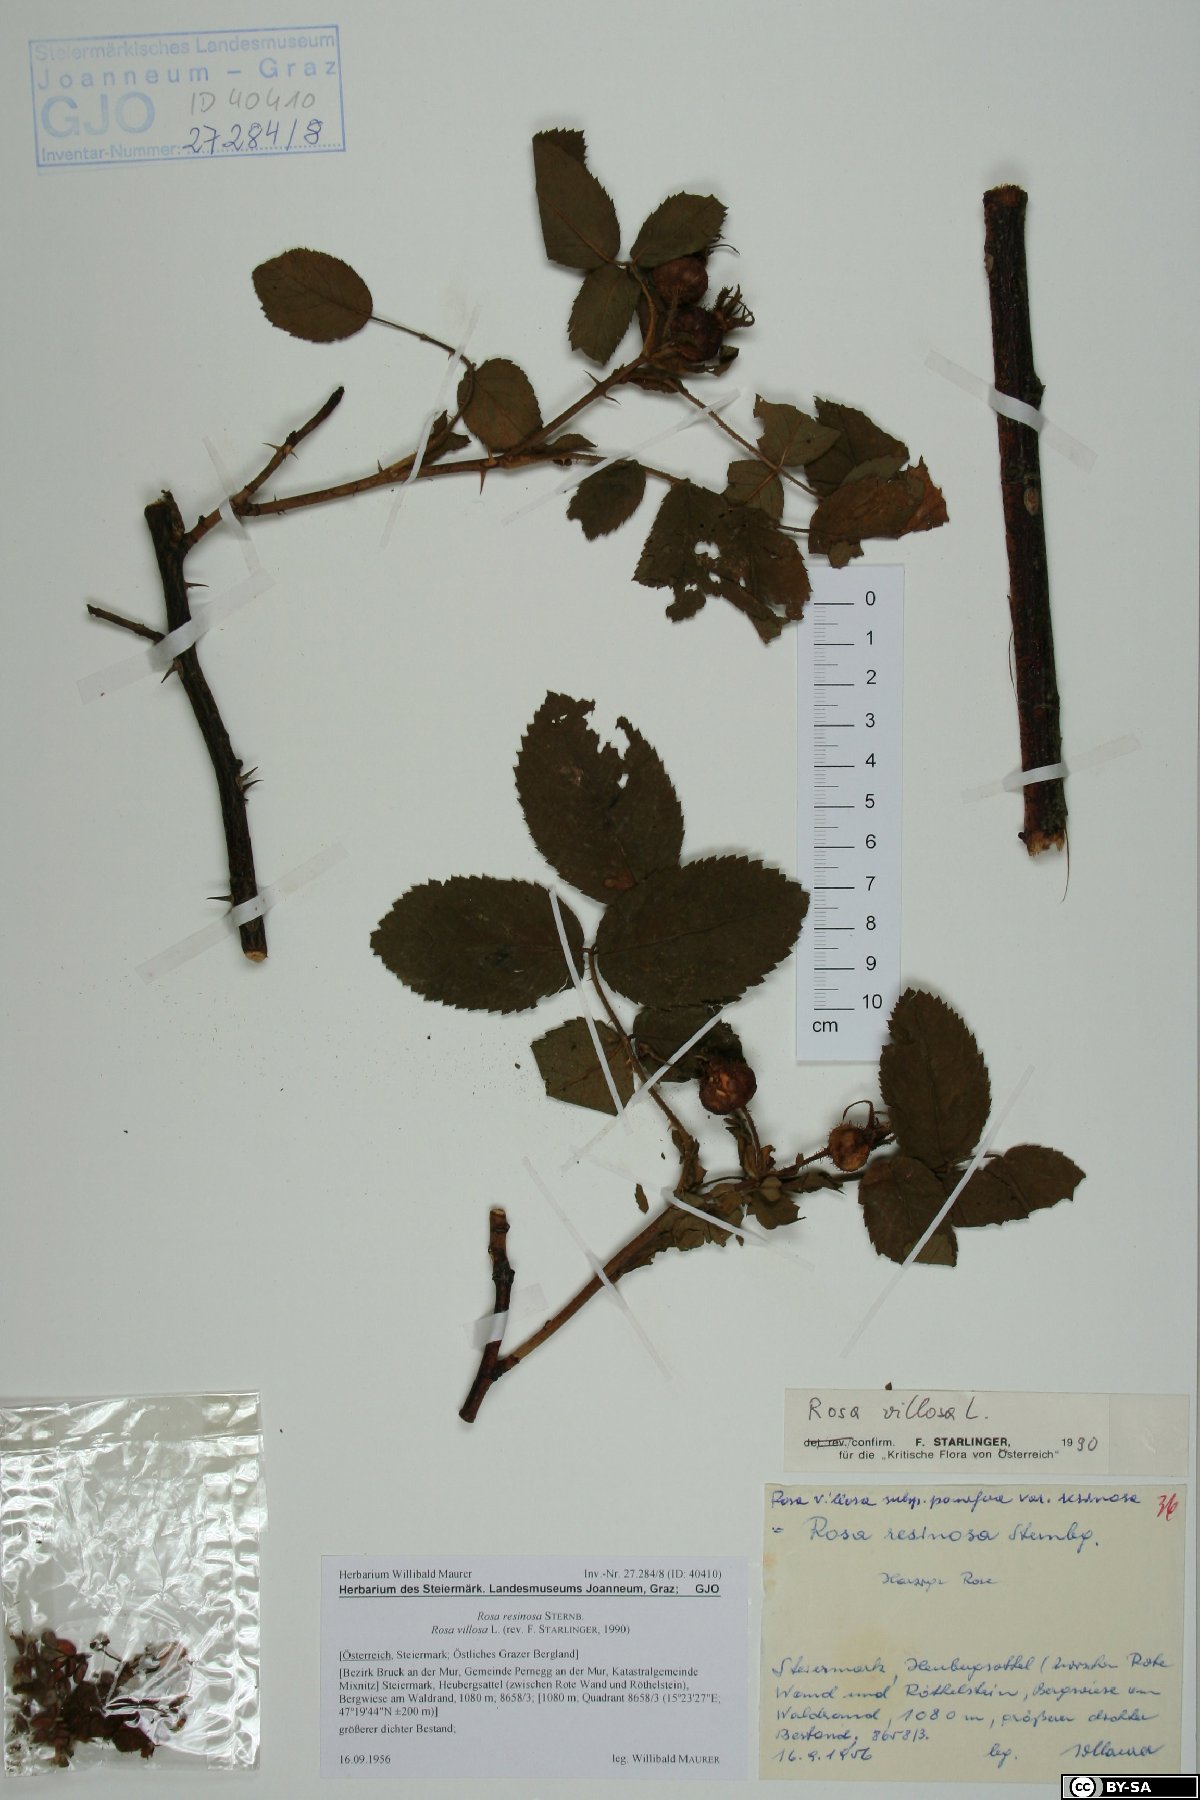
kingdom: Plantae
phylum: Tracheophyta
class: Magnoliopsida
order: Rosales
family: Rosaceae
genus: Rosa
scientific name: Rosa villosa
